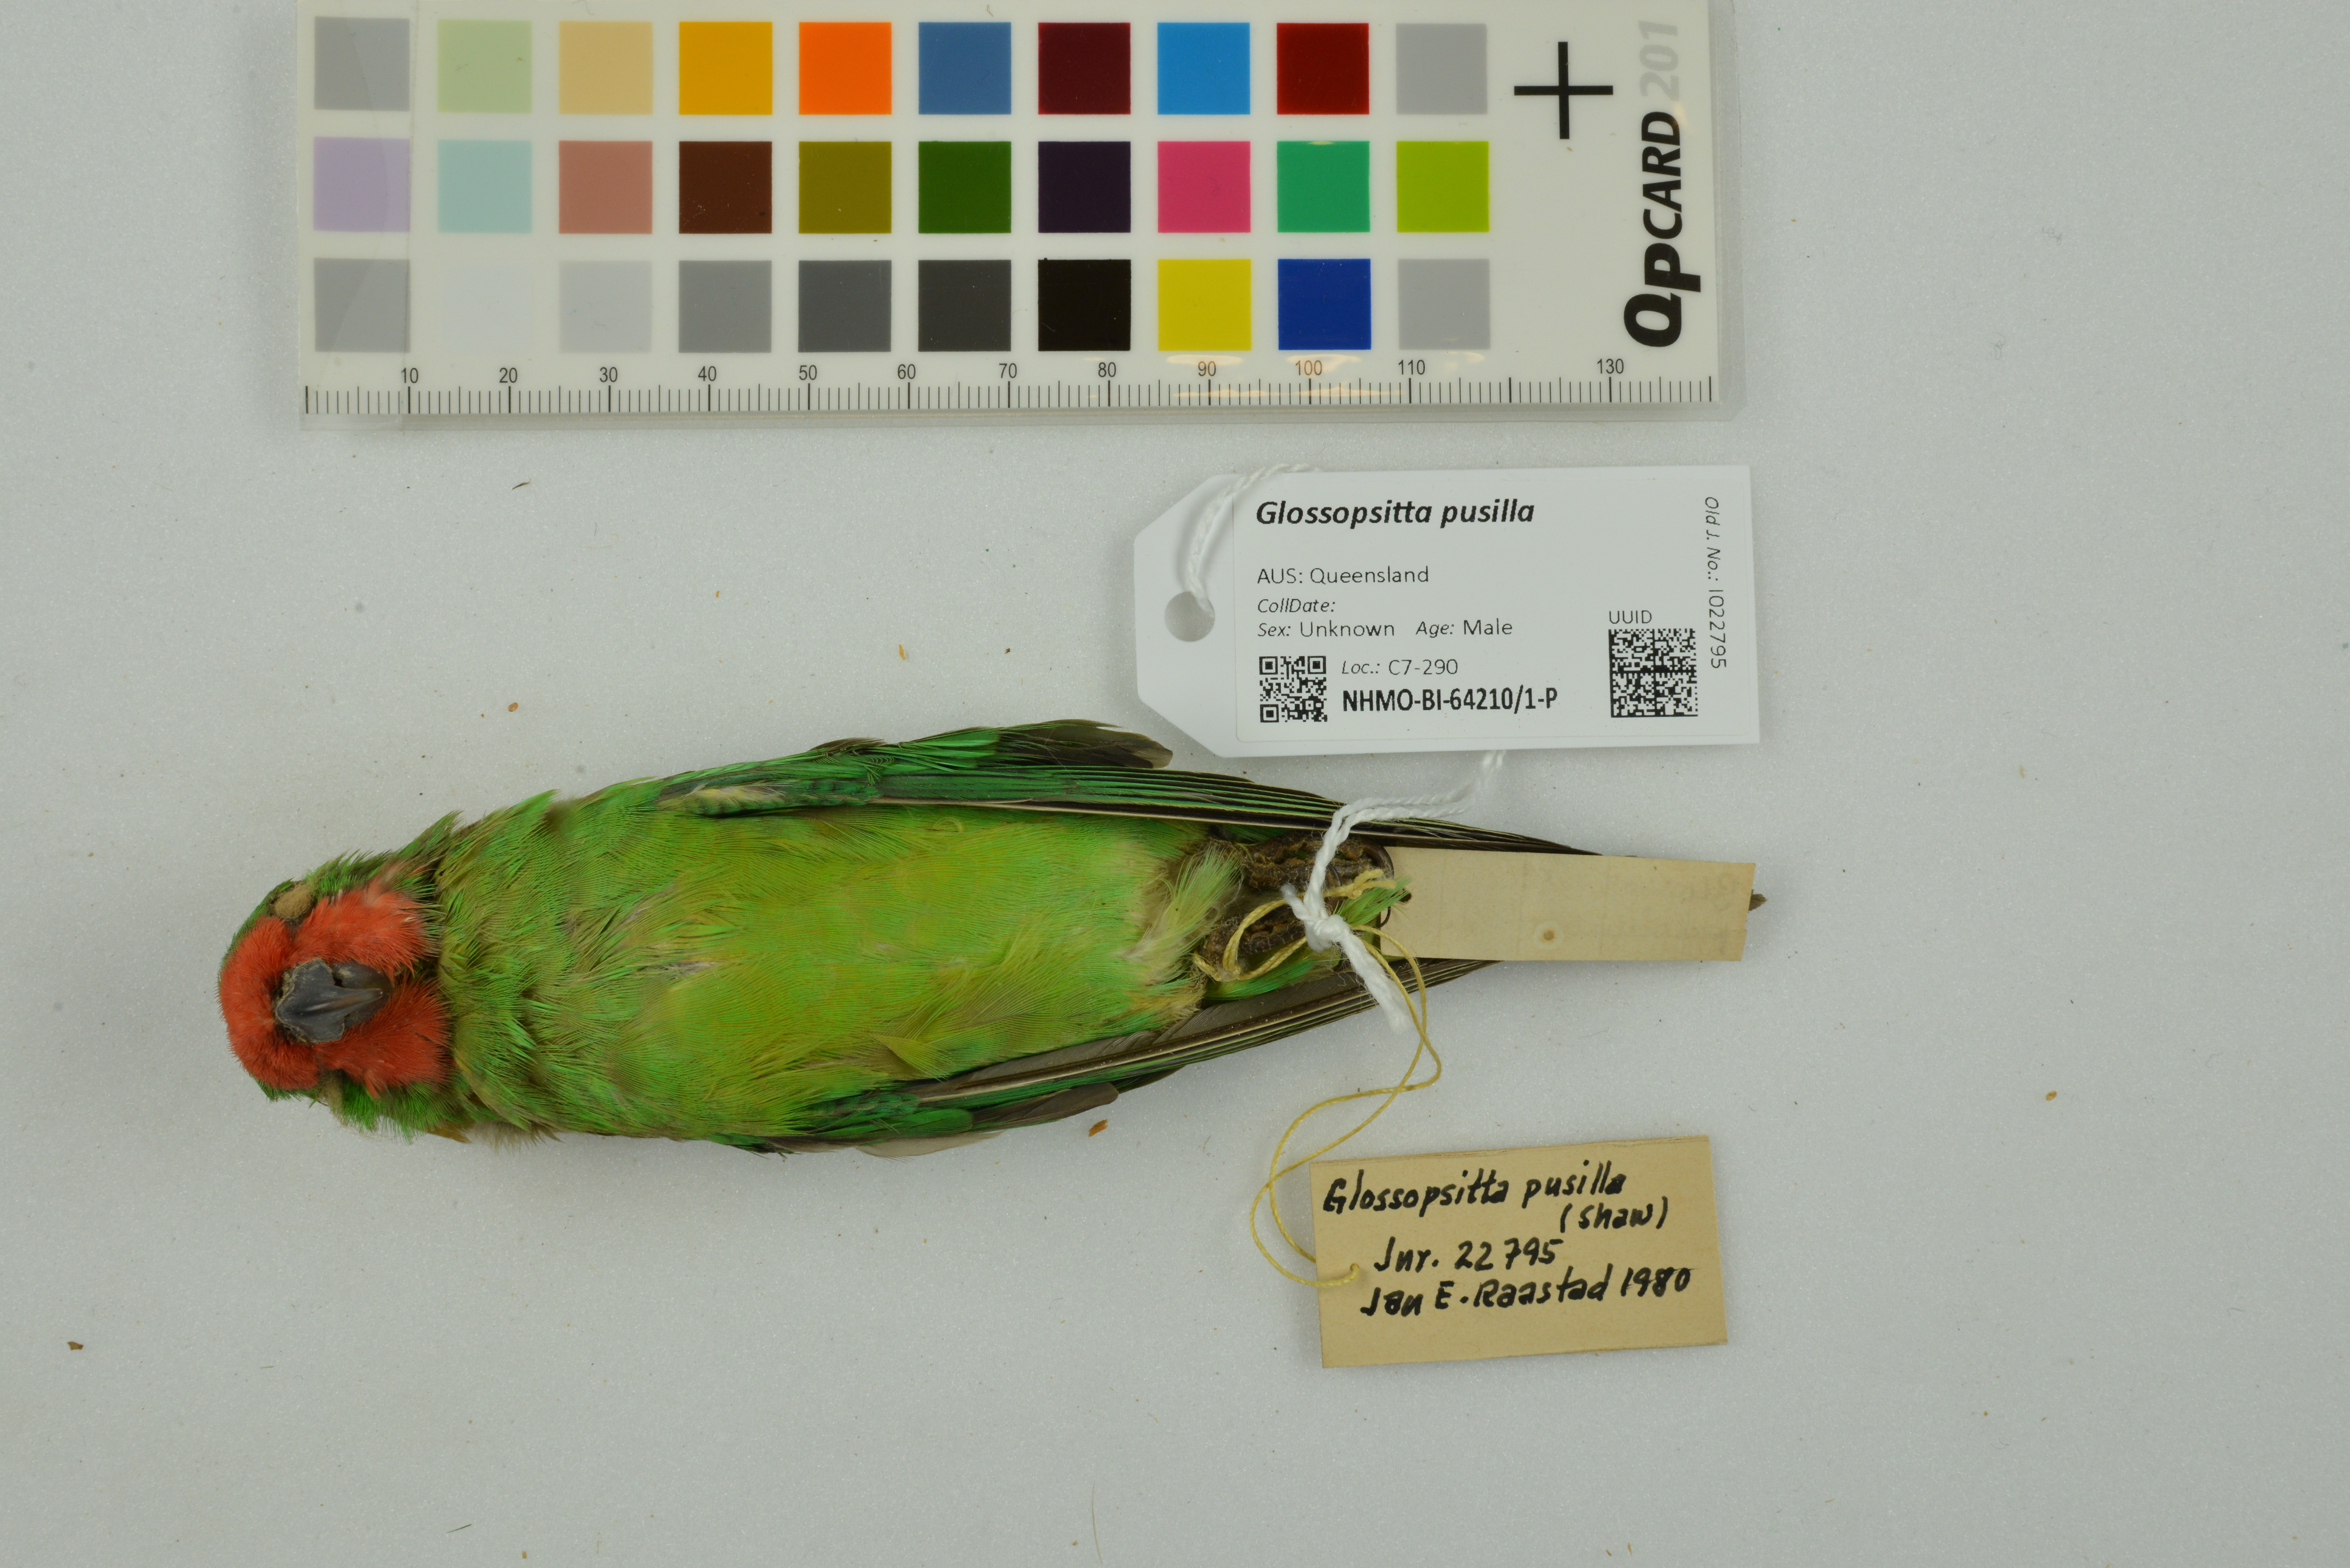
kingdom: Animalia
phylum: Chordata
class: Aves
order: Psittaciformes
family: Psittaculidae
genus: Parvipsitta
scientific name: Parvipsitta pusilla
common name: Little lorikeet
